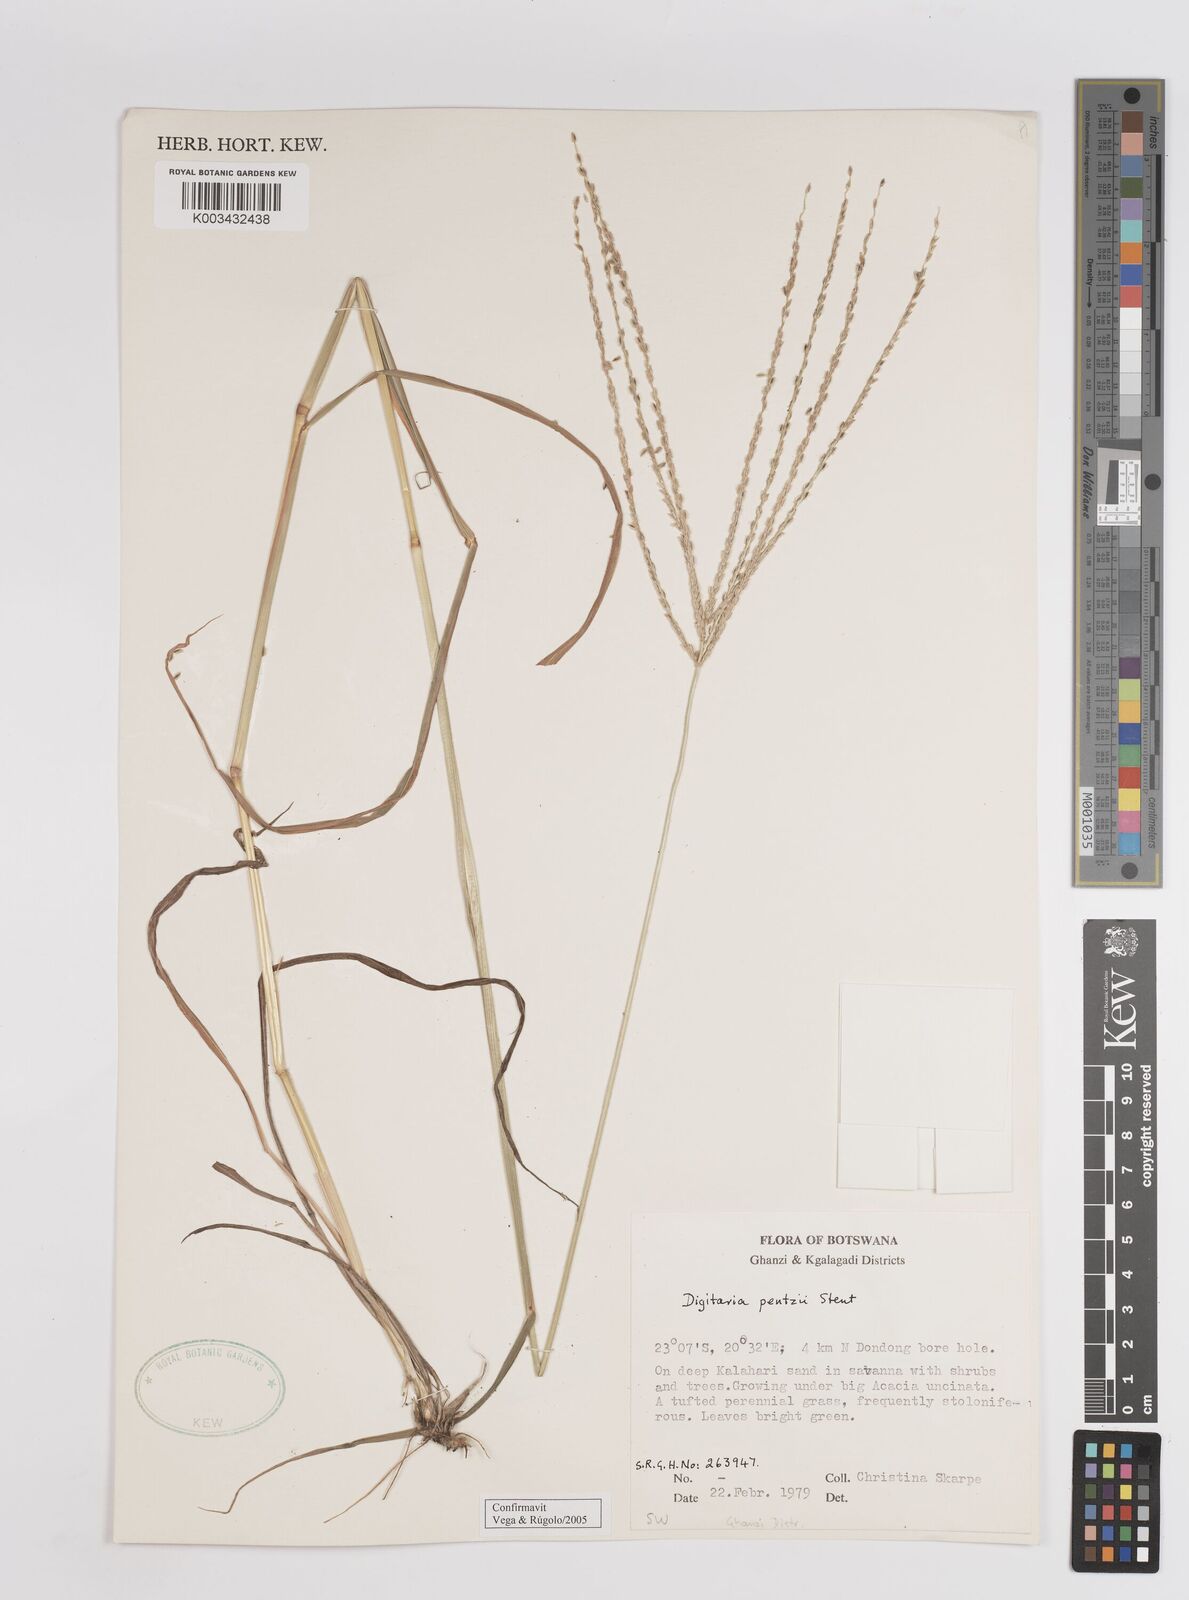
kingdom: Plantae
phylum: Tracheophyta
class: Liliopsida
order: Poales
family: Poaceae
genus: Digitaria
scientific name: Digitaria eriantha
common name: Digitgrass
